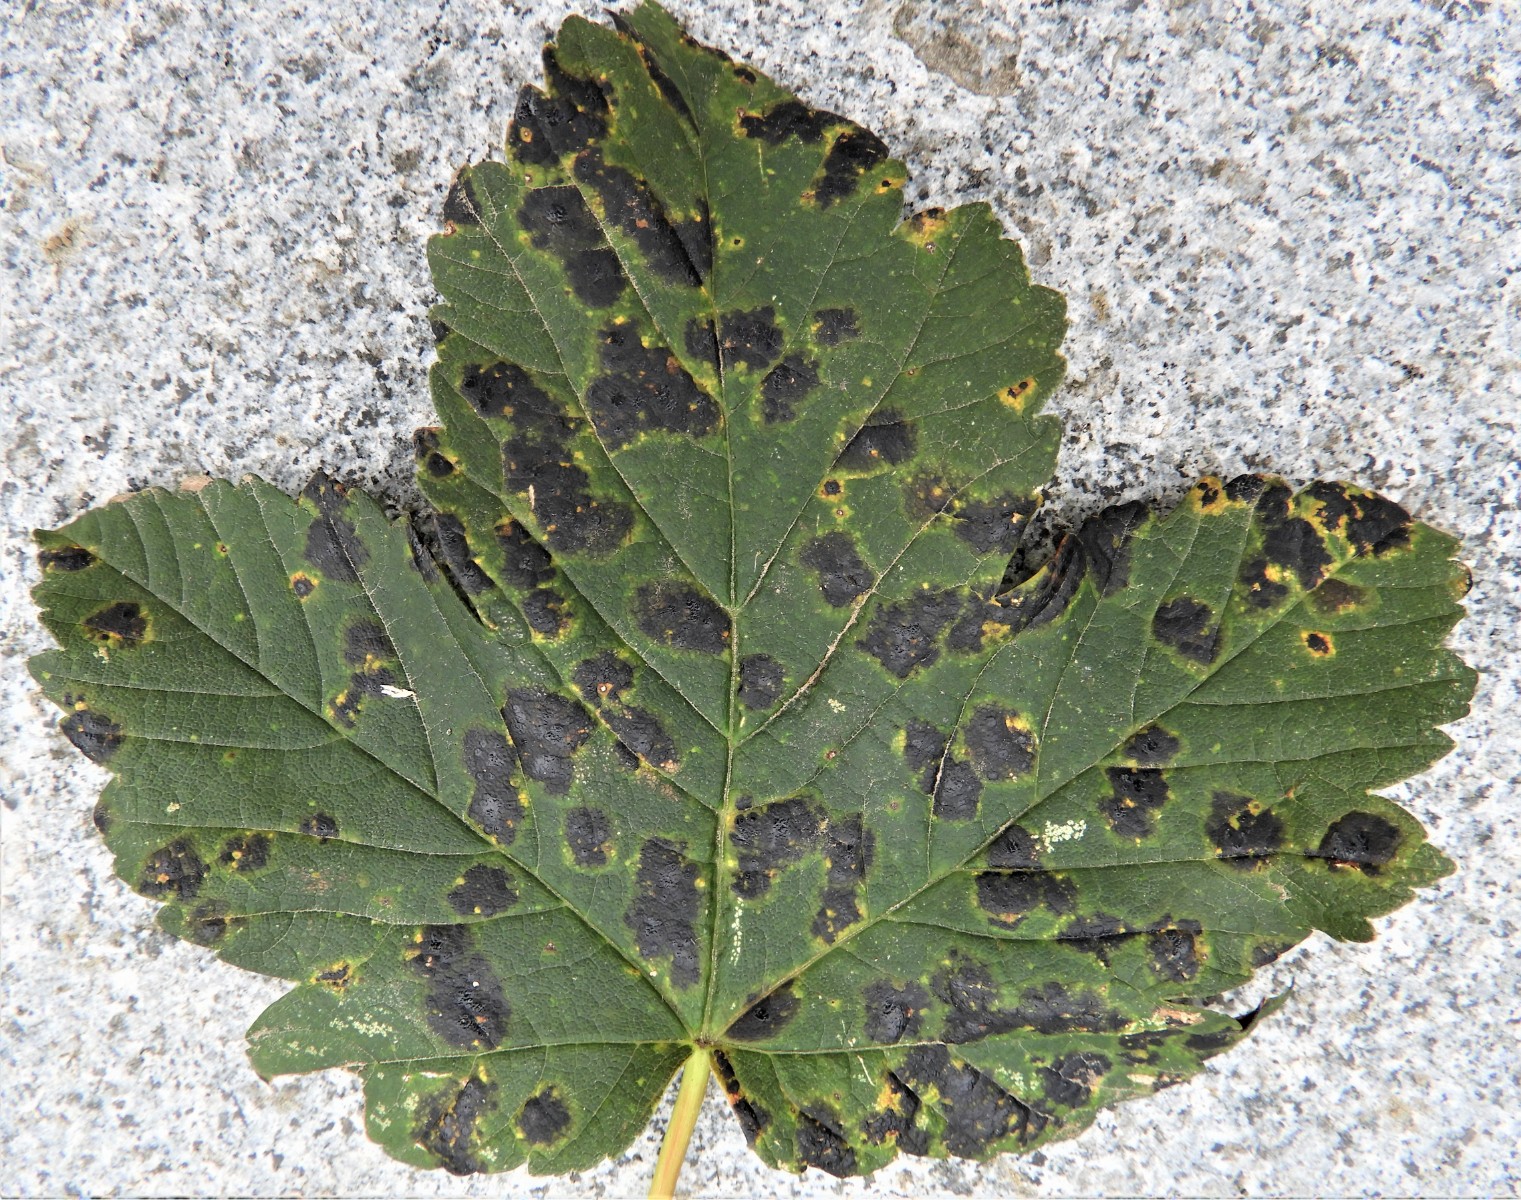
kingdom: Fungi
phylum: Ascomycota
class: Leotiomycetes
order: Rhytismatales
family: Rhytismataceae
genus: Rhytisma
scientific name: Rhytisma acerinum
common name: ahorn-rynkeplet
